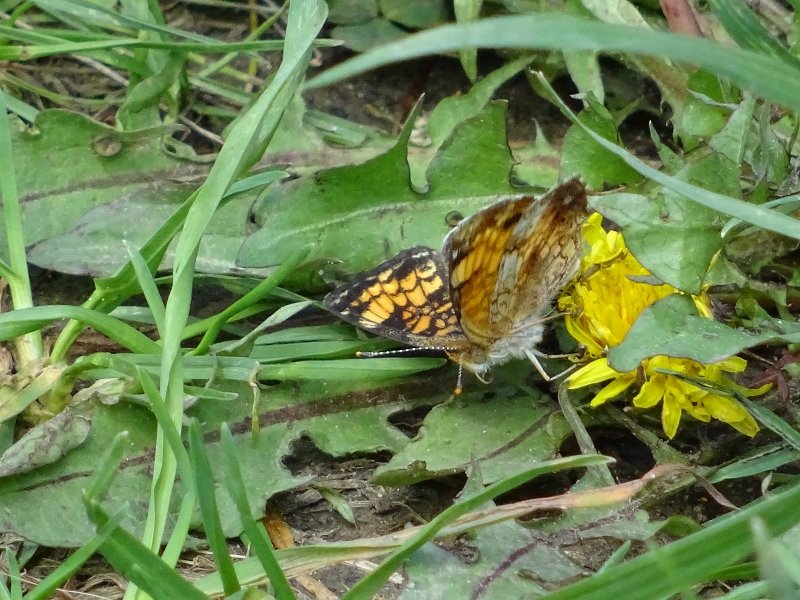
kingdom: Animalia
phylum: Arthropoda
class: Insecta
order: Lepidoptera
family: Nymphalidae
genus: Phyciodes
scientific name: Phyciodes tharos
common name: Northern Crescent
